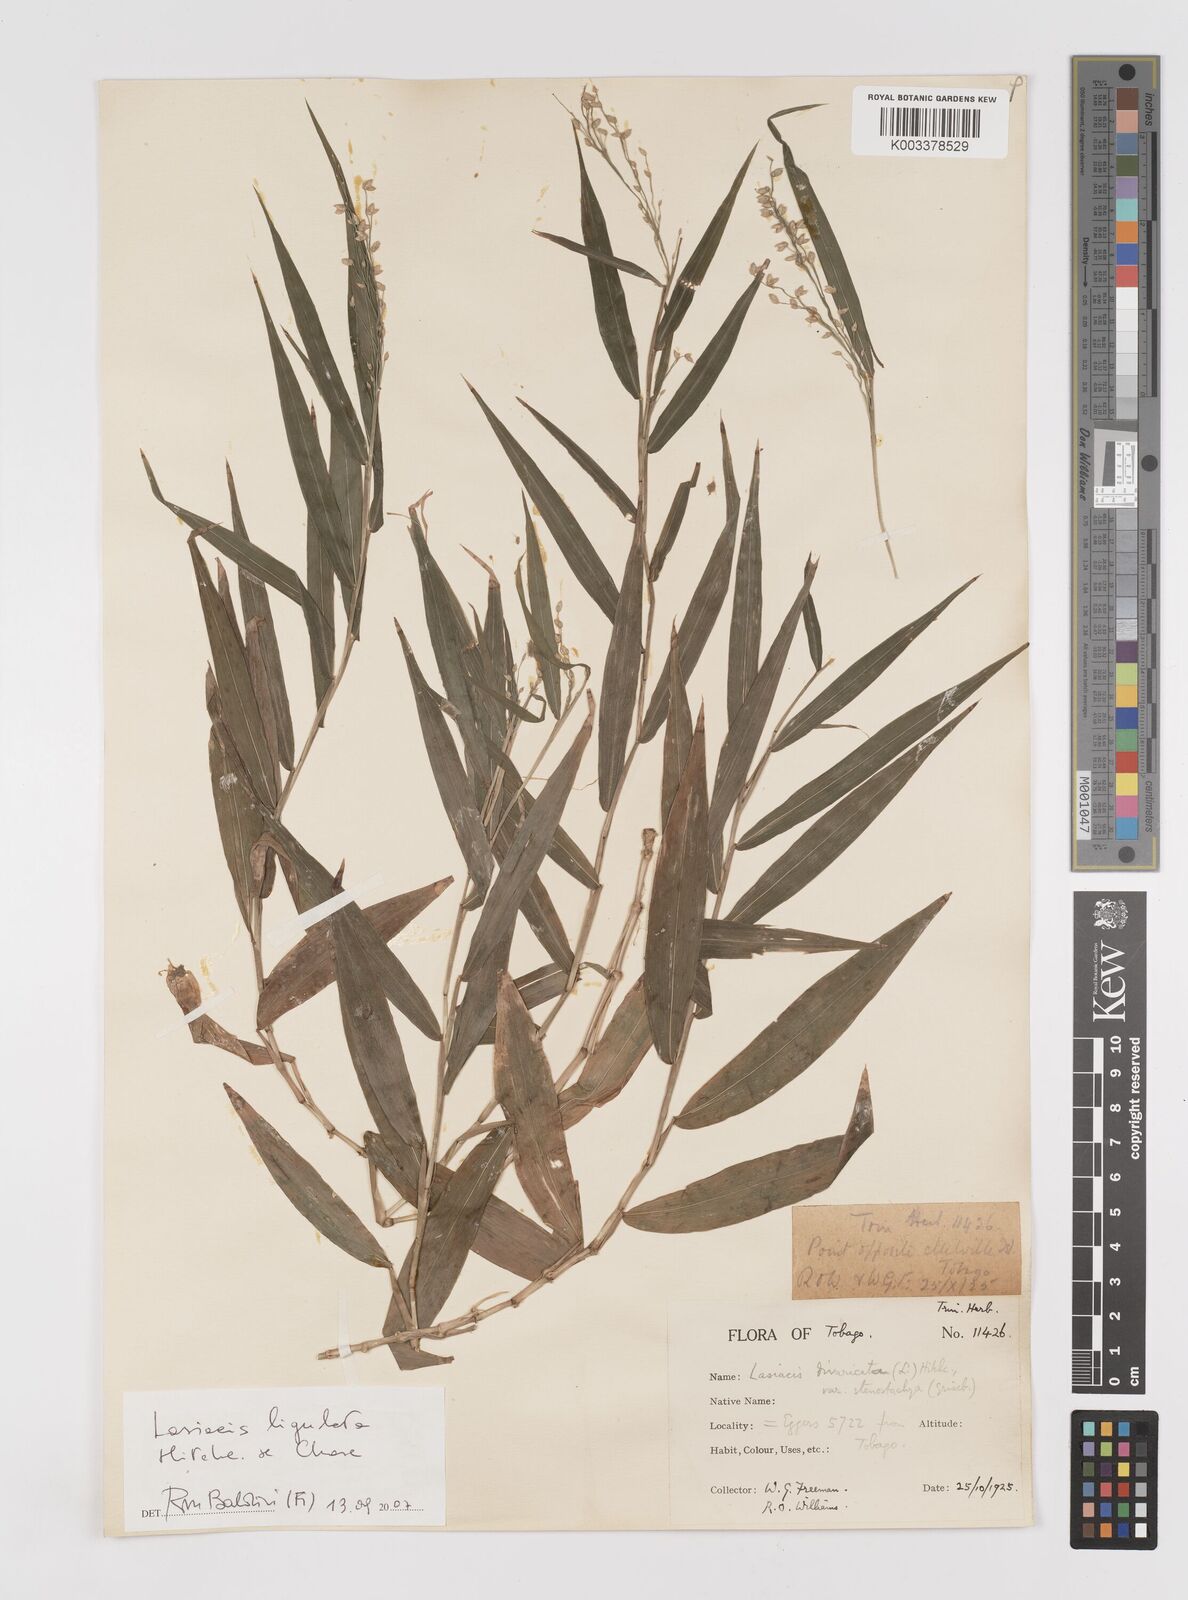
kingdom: Plantae
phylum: Tracheophyta
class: Liliopsida
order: Poales
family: Poaceae
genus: Lasiacis
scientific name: Lasiacis ligulata
